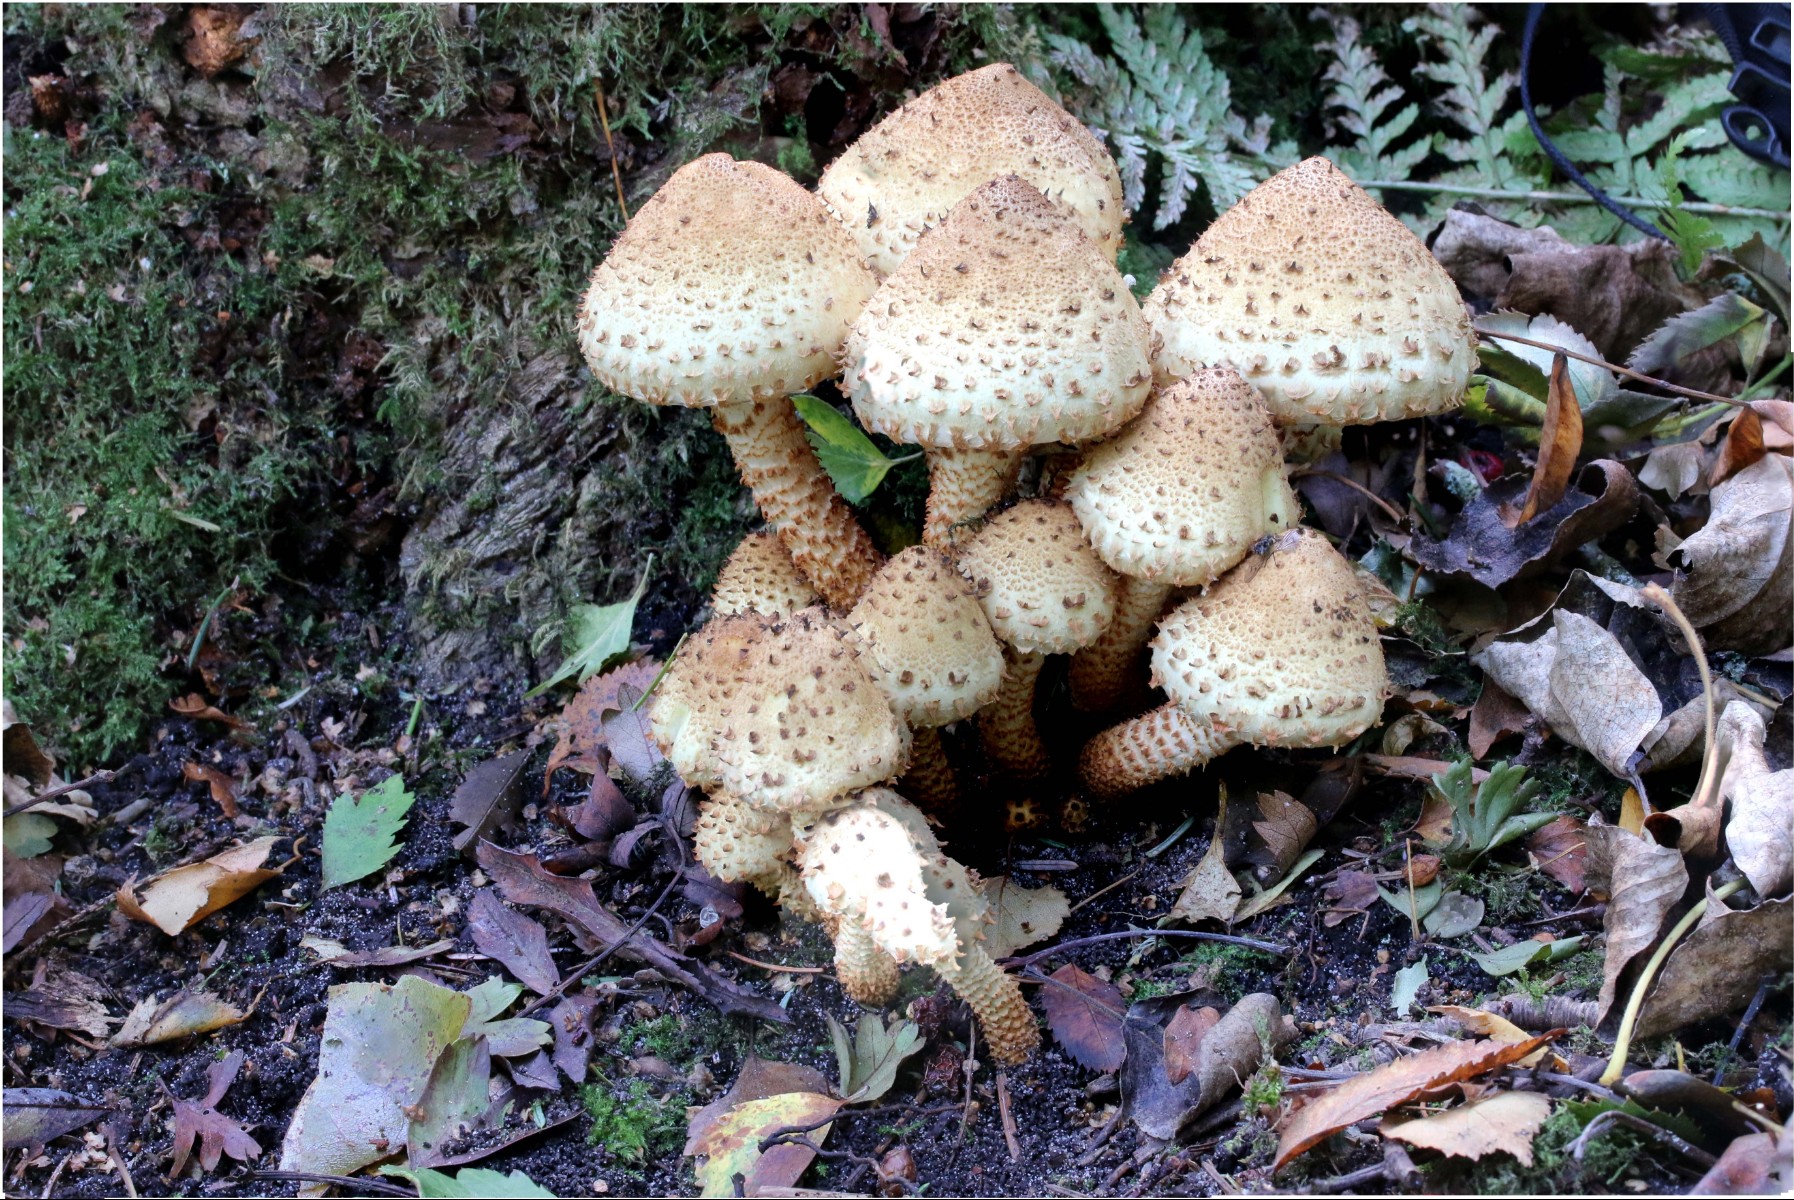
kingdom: Fungi
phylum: Basidiomycota
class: Agaricomycetes
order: Agaricales
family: Strophariaceae
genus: Pholiota
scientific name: Pholiota squarrosa
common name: krumskællet skælhat
